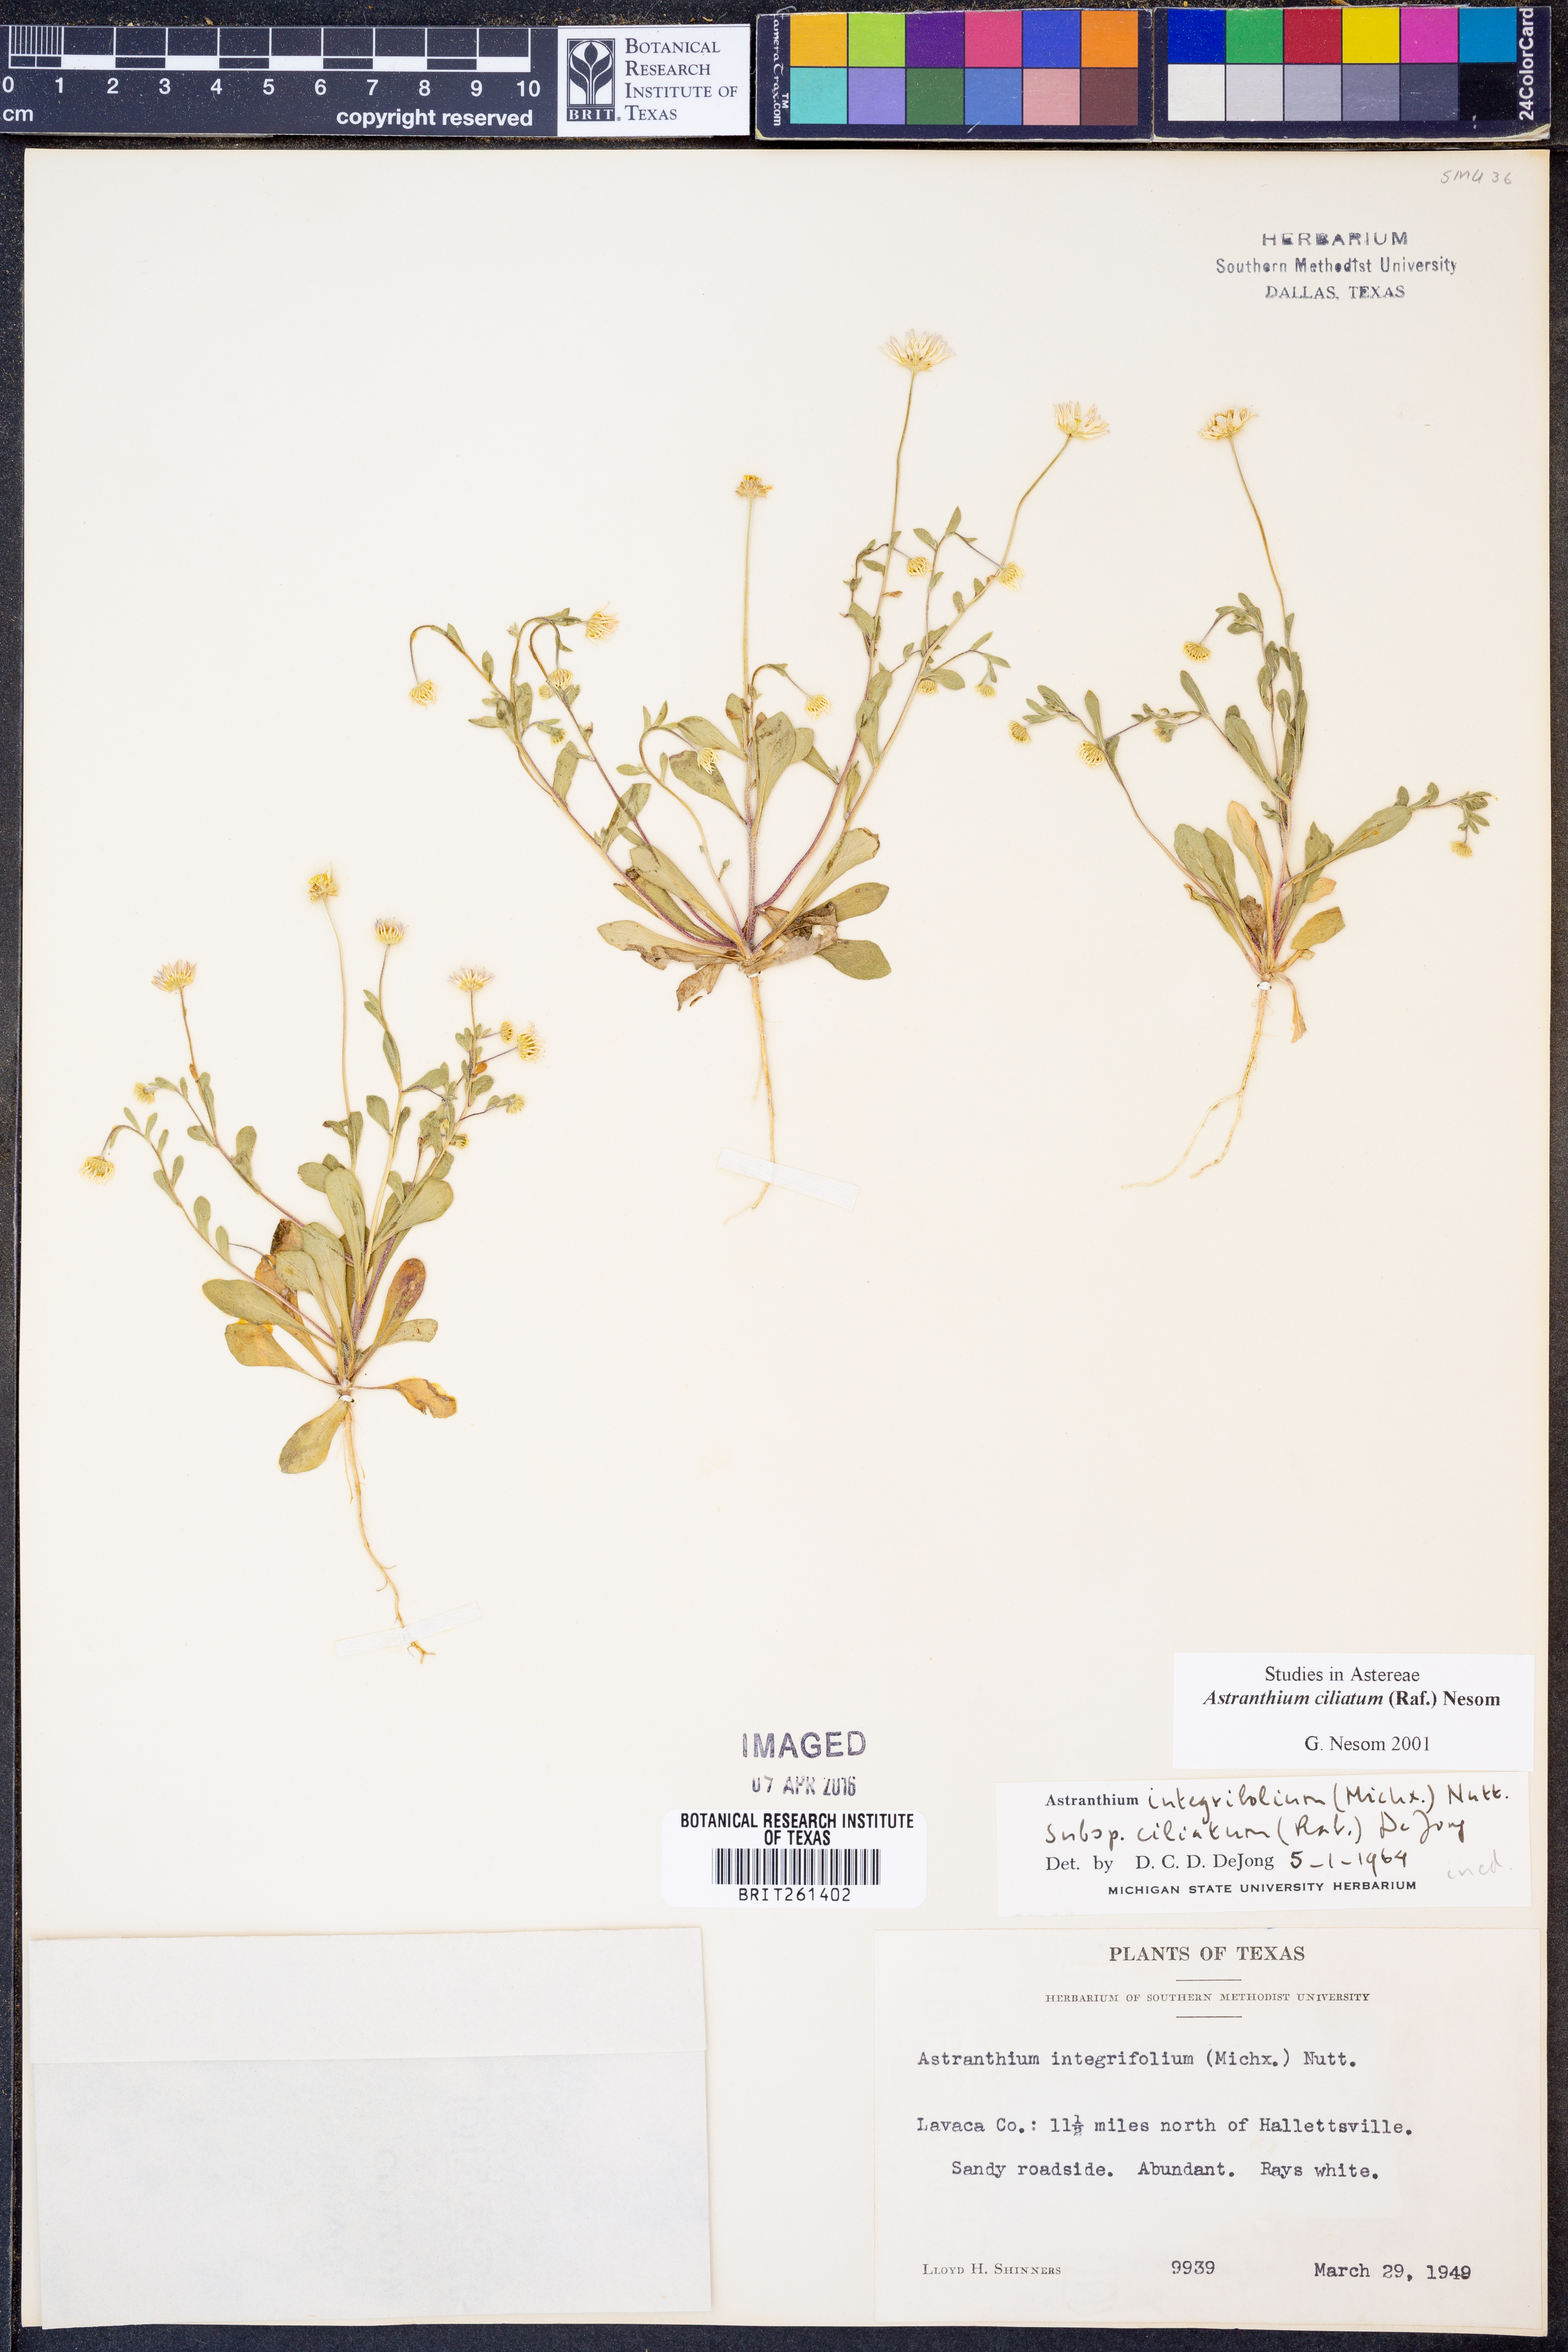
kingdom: Plantae
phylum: Tracheophyta
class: Magnoliopsida
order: Asterales
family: Asteraceae
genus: Astranthium
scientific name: Astranthium ciliatum
